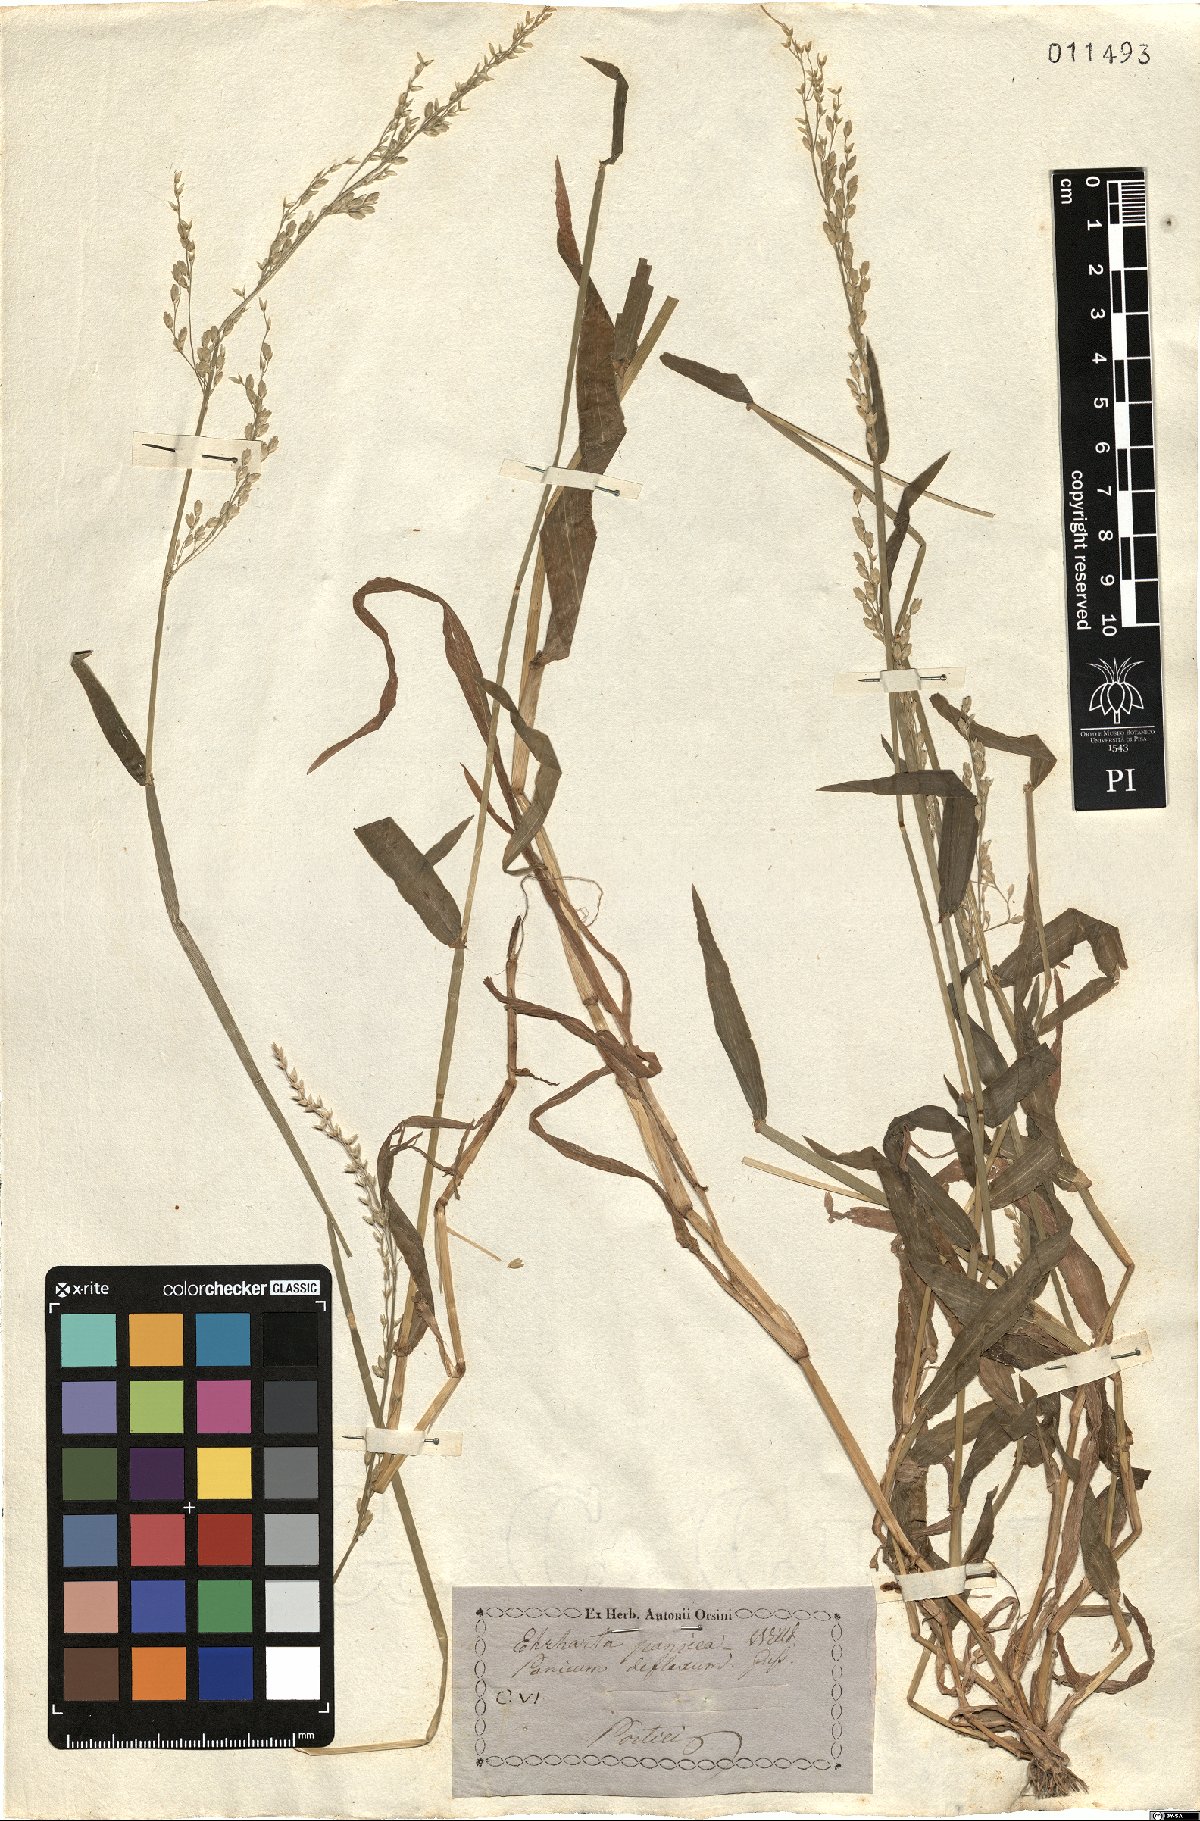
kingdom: Plantae
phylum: Tracheophyta
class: Liliopsida
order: Poales
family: Poaceae
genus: Ehrharta
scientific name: Ehrharta erecta
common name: Panic veldtgrass
